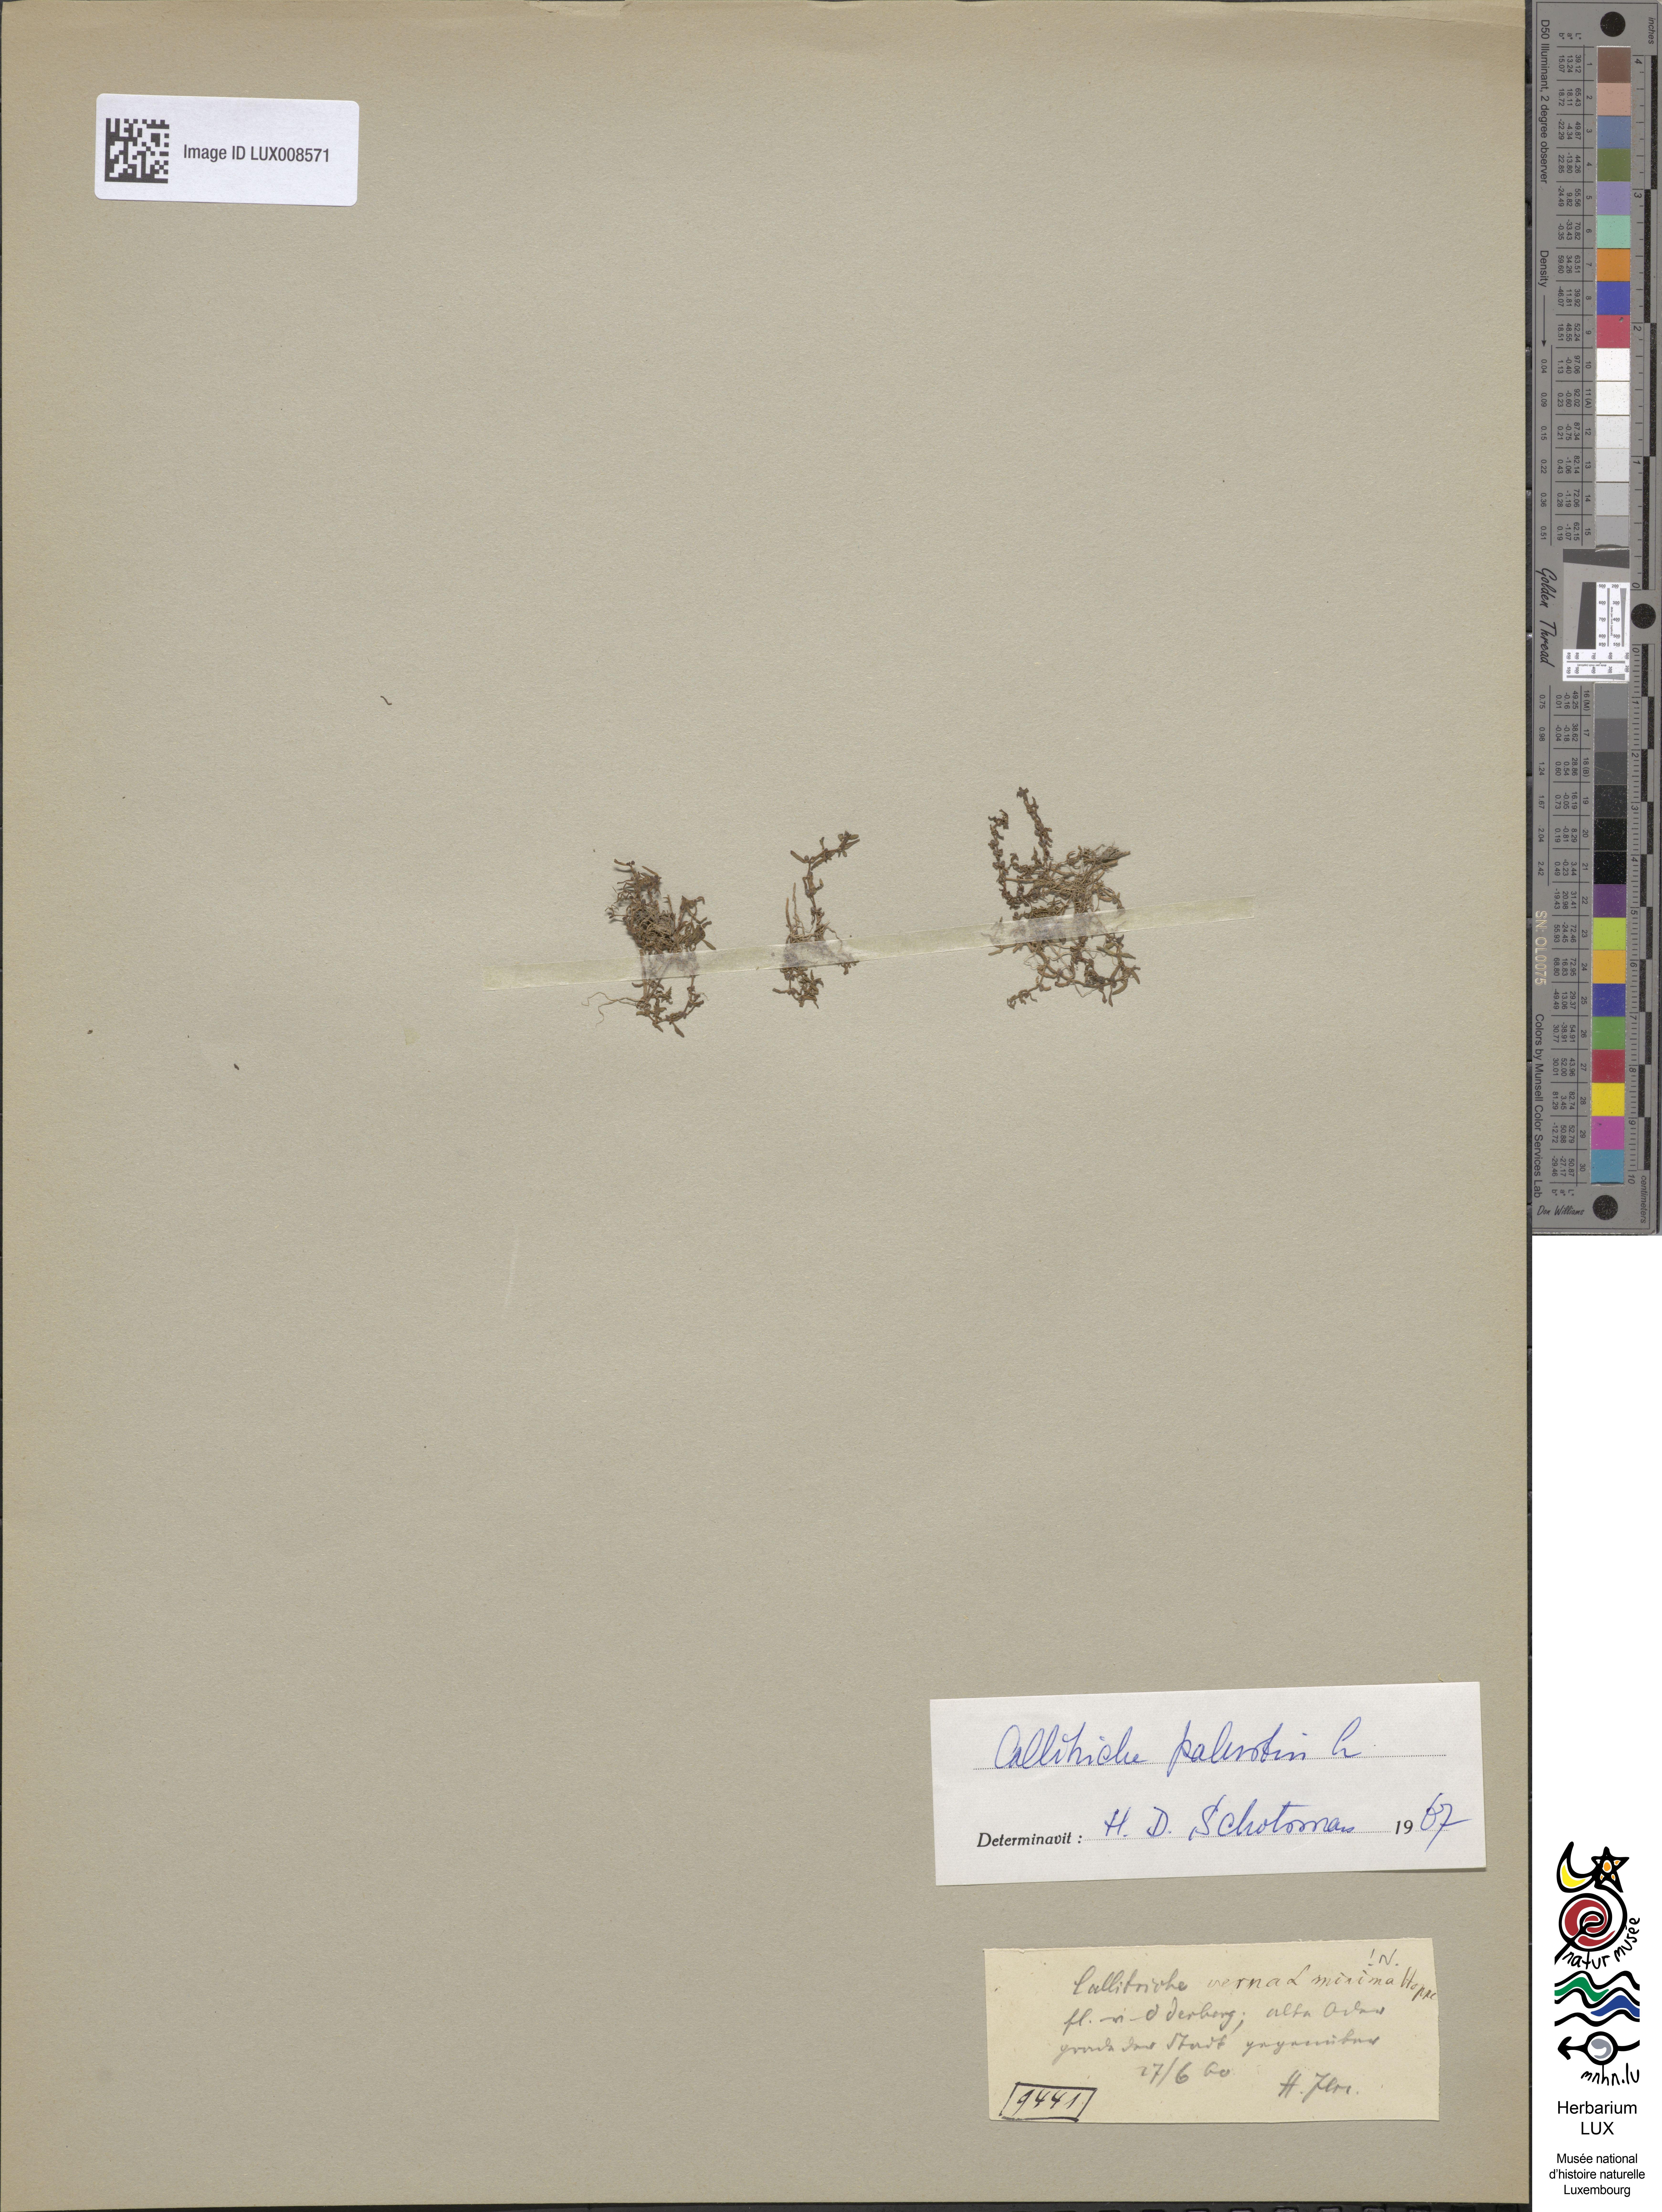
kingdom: Plantae
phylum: Tracheophyta
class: Magnoliopsida
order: Lamiales
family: Plantaginaceae
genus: Callitriche
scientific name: Callitriche palustris
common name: Spring water-starwort
